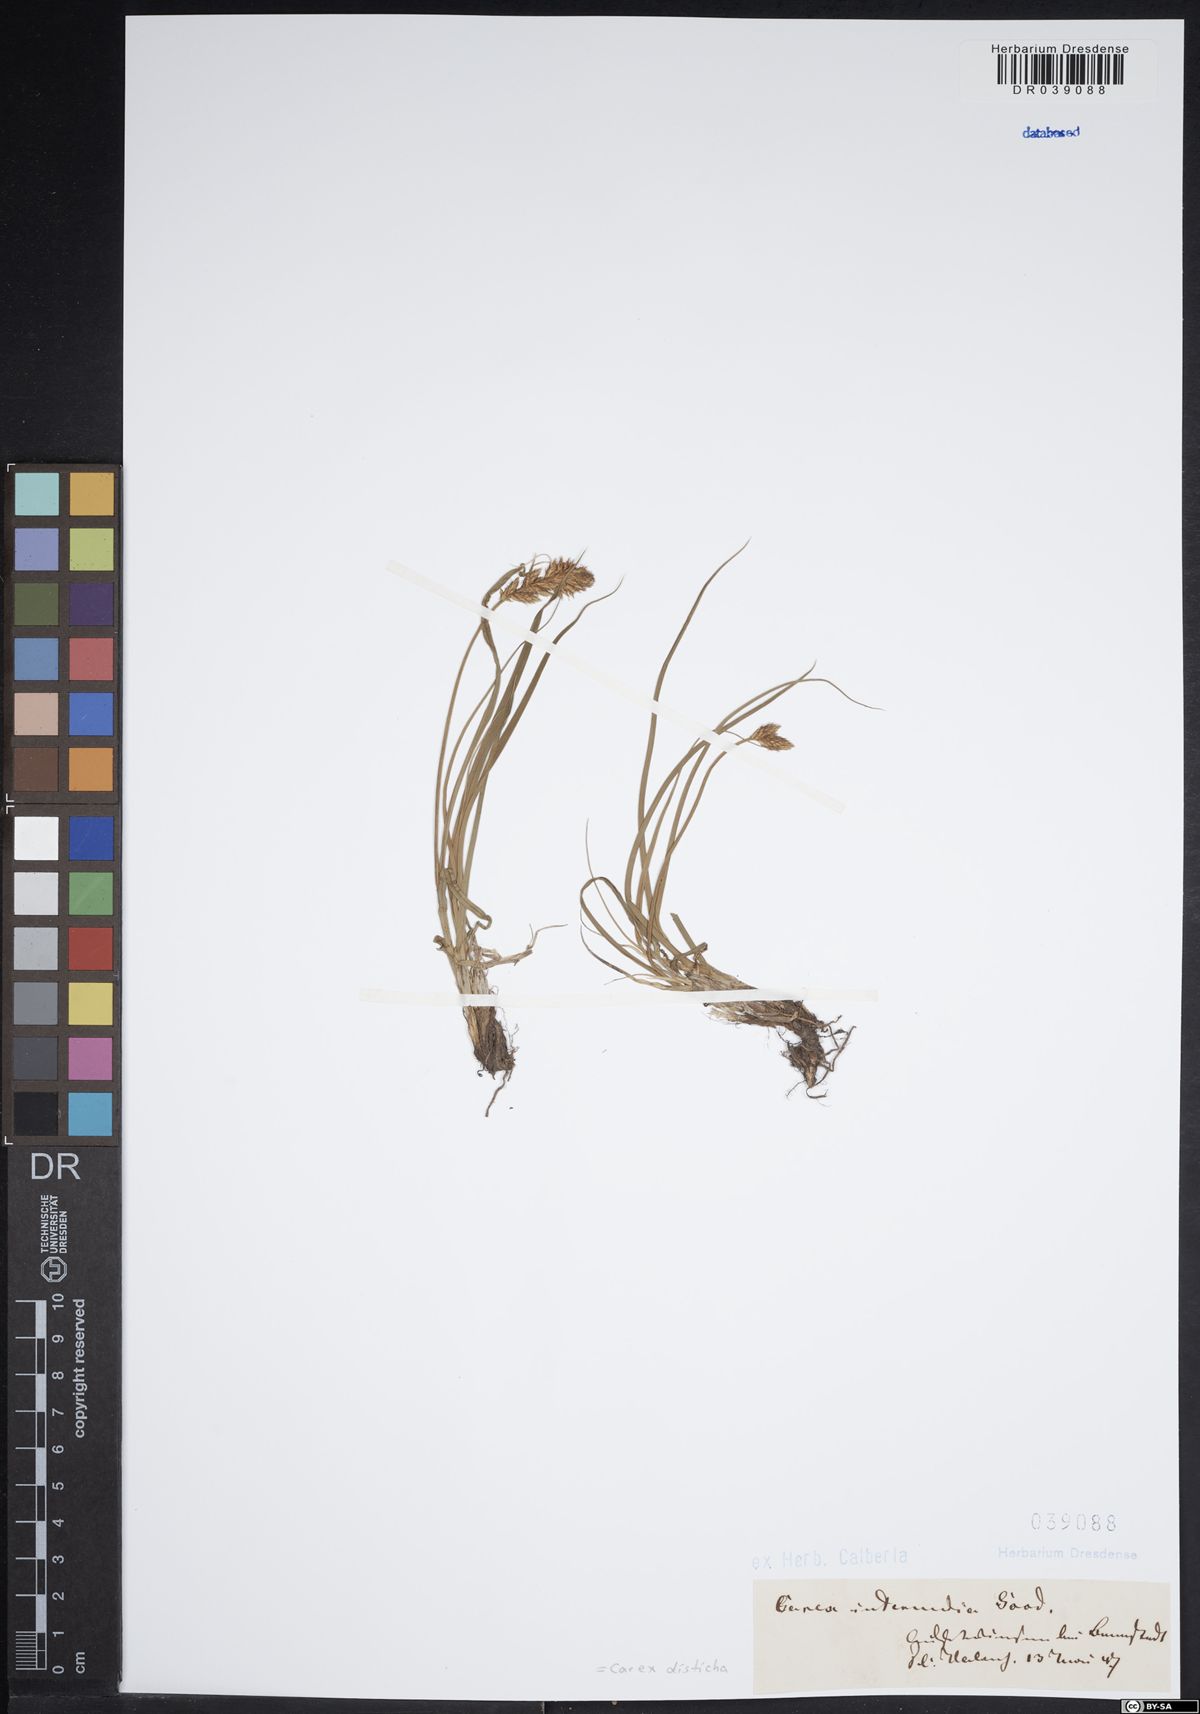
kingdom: Plantae
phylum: Tracheophyta
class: Liliopsida
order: Poales
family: Cyperaceae
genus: Carex
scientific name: Carex disticha
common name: Brown sedge
